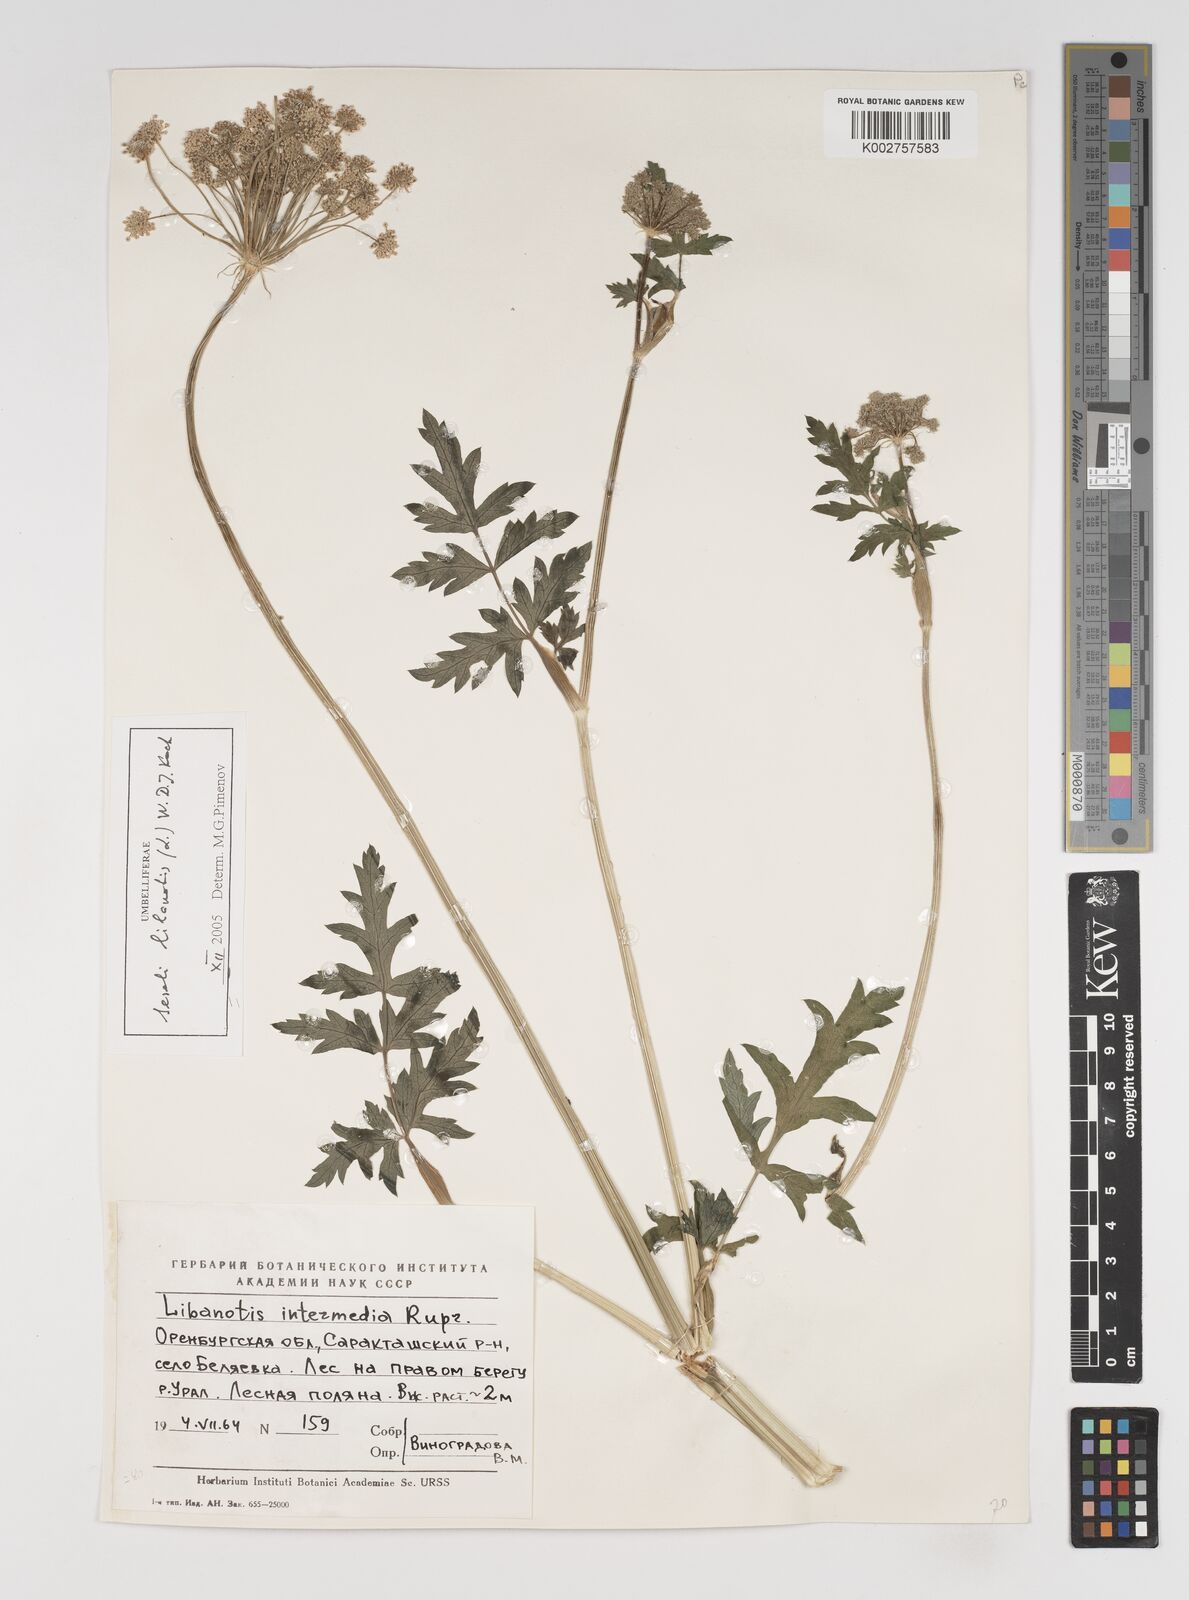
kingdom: Plantae
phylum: Tracheophyta
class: Magnoliopsida
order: Apiales
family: Apiaceae
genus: Seseli
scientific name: Seseli libanotis
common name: Mooncarrot
